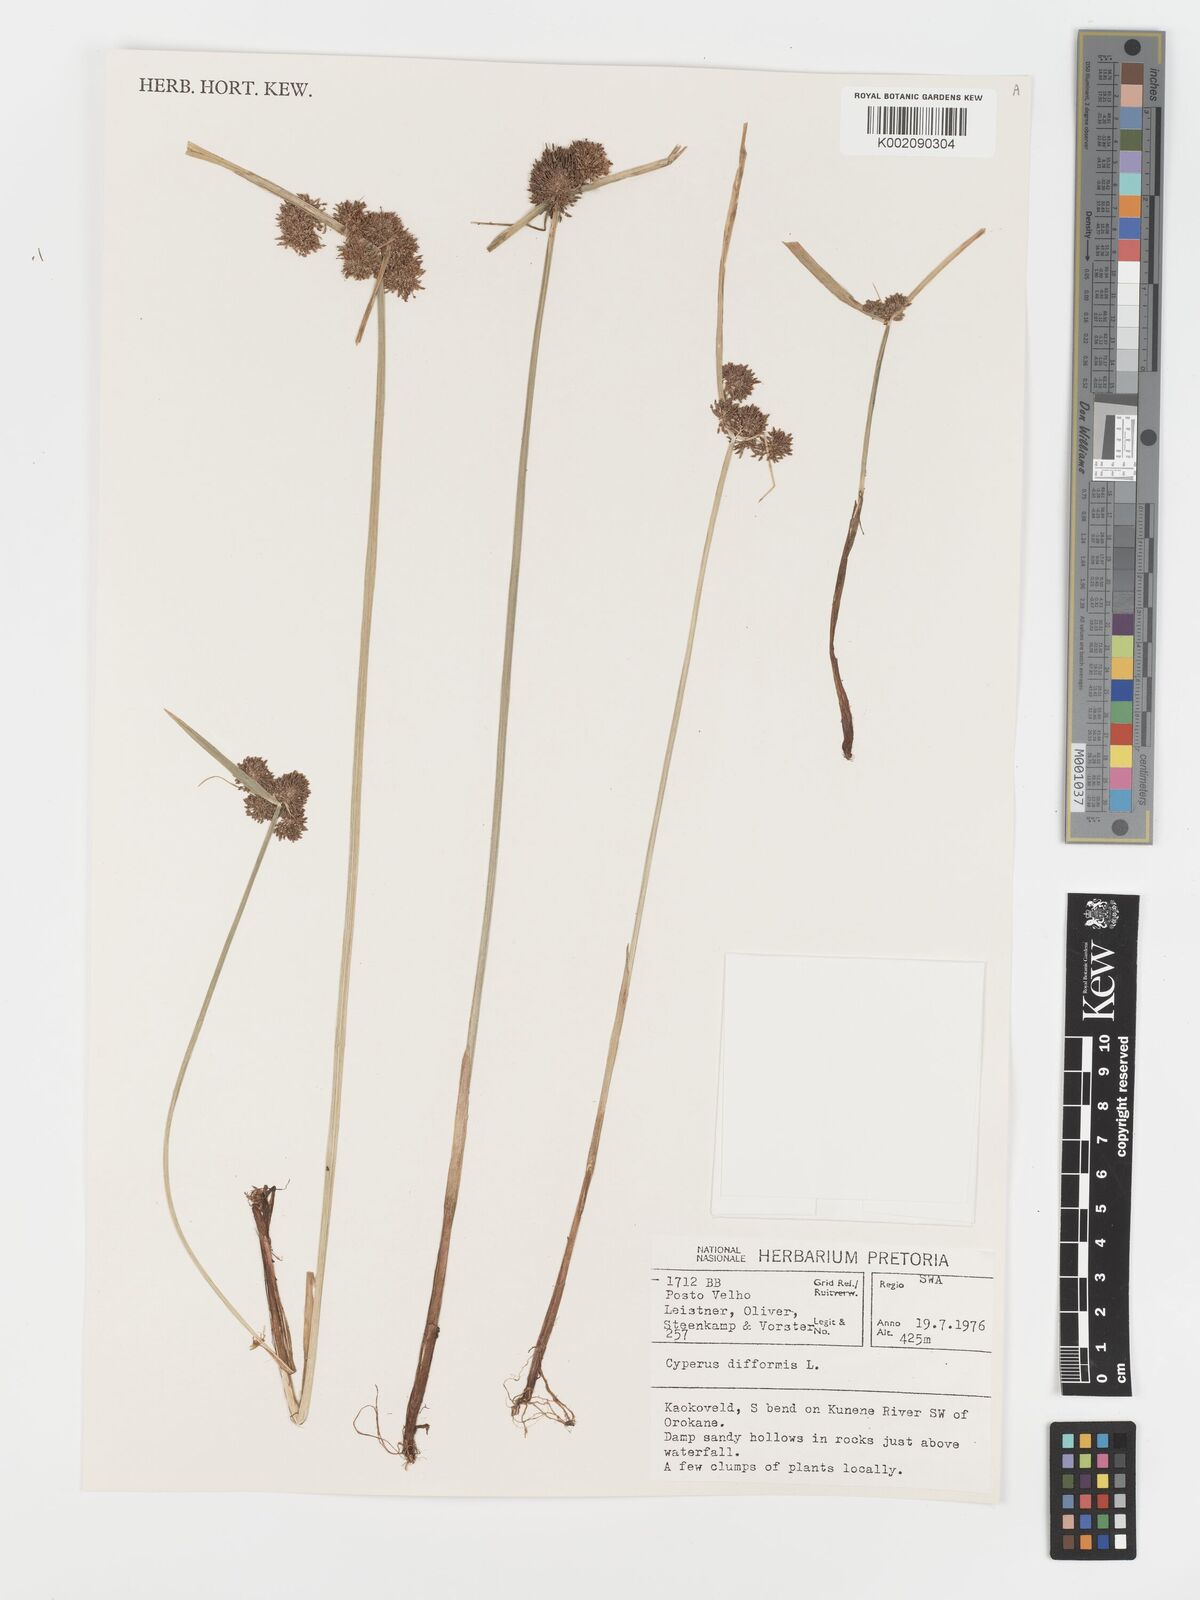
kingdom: Plantae
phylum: Tracheophyta
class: Liliopsida
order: Poales
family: Cyperaceae
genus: Cyperus
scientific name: Cyperus difformis
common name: Variable flatsedge
